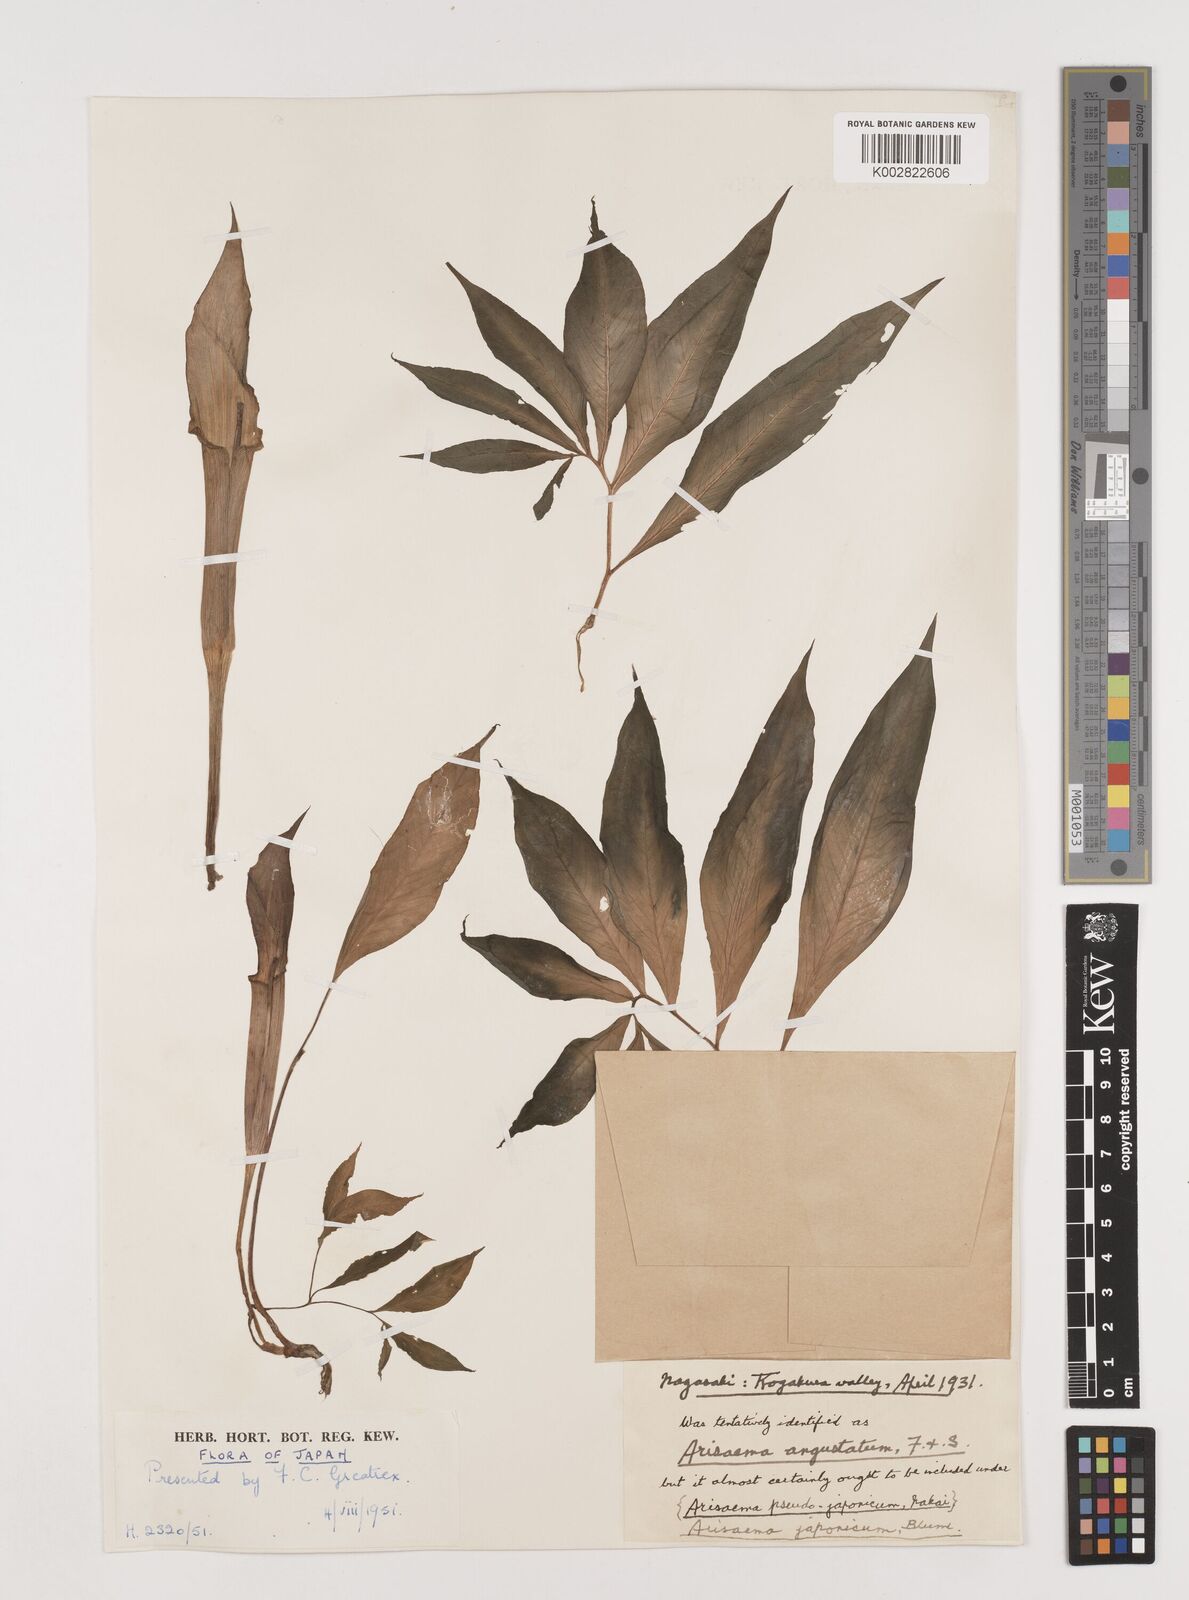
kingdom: Plantae
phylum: Tracheophyta
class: Liliopsida
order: Alismatales
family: Araceae
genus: Arisaema
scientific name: Arisaema serratum
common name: Japanese arisaema
